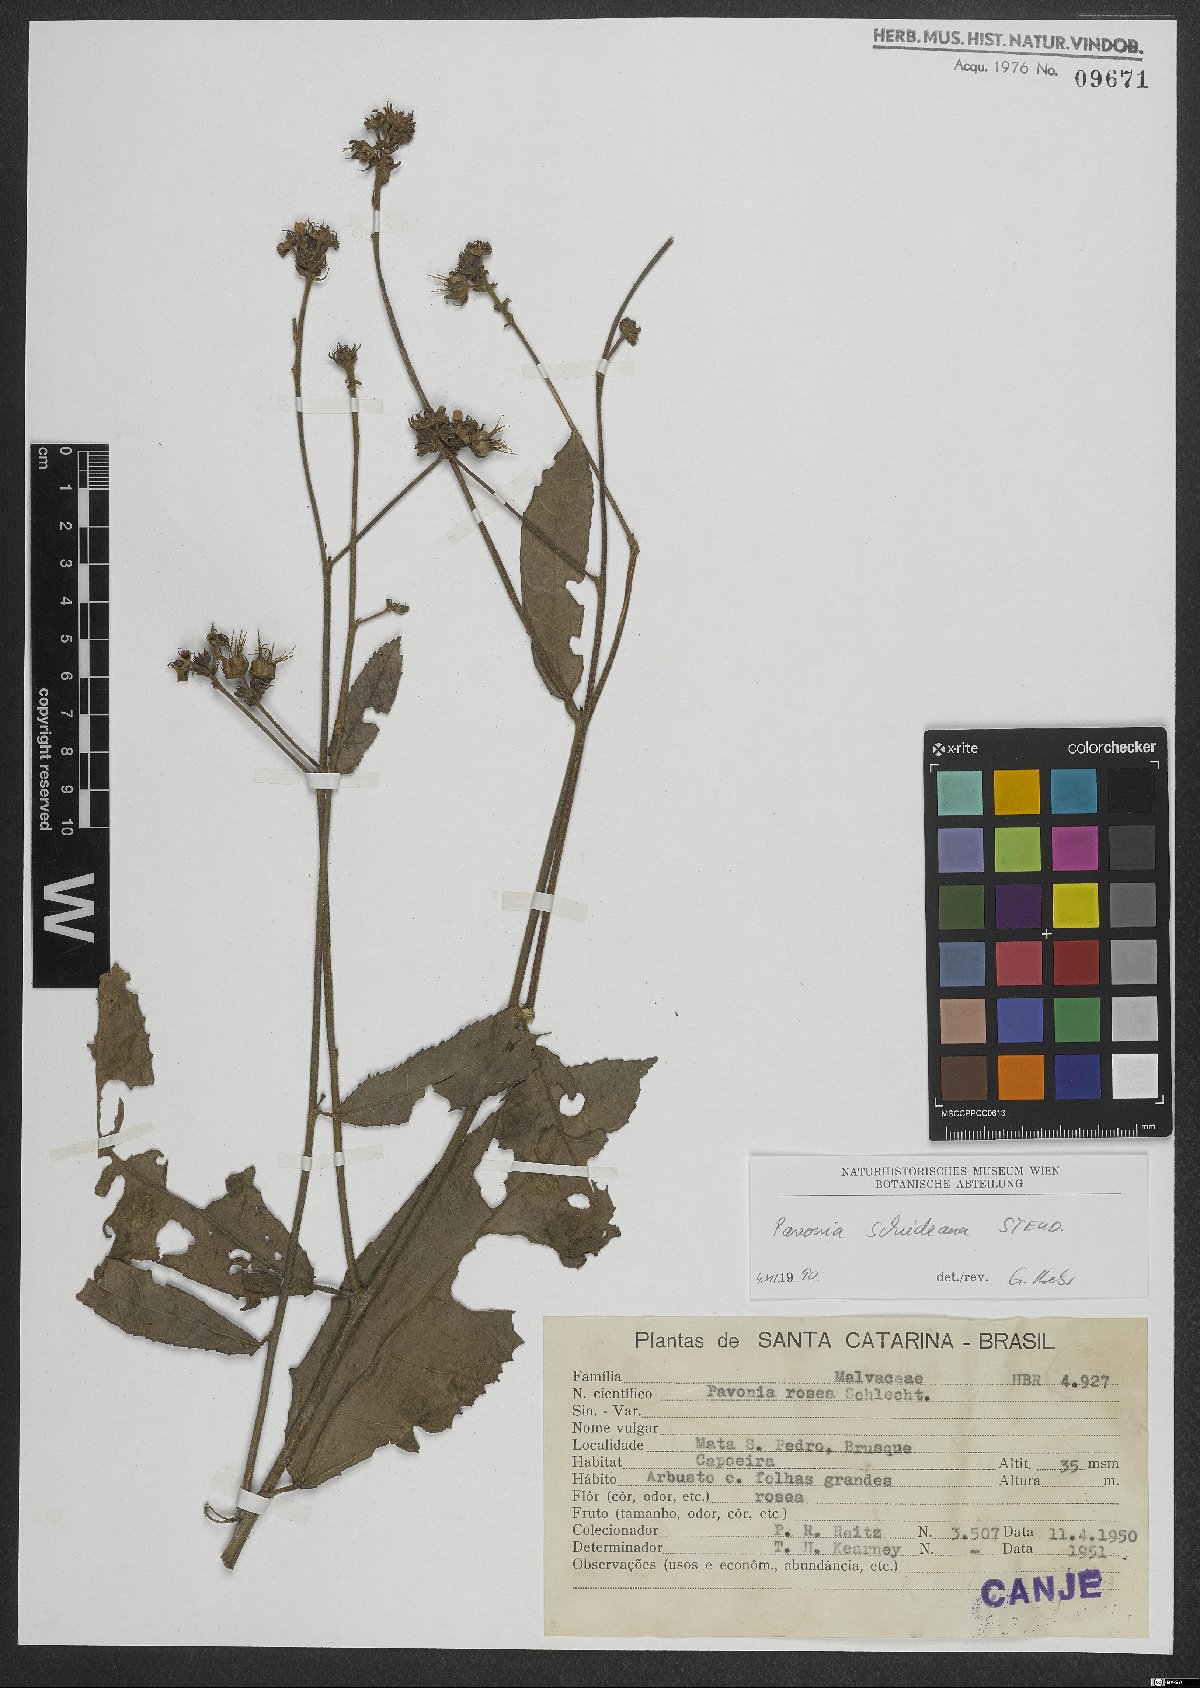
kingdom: Plantae
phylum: Tracheophyta
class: Magnoliopsida
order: Malvales
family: Malvaceae
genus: Pavonia
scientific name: Pavonia schiedeana
